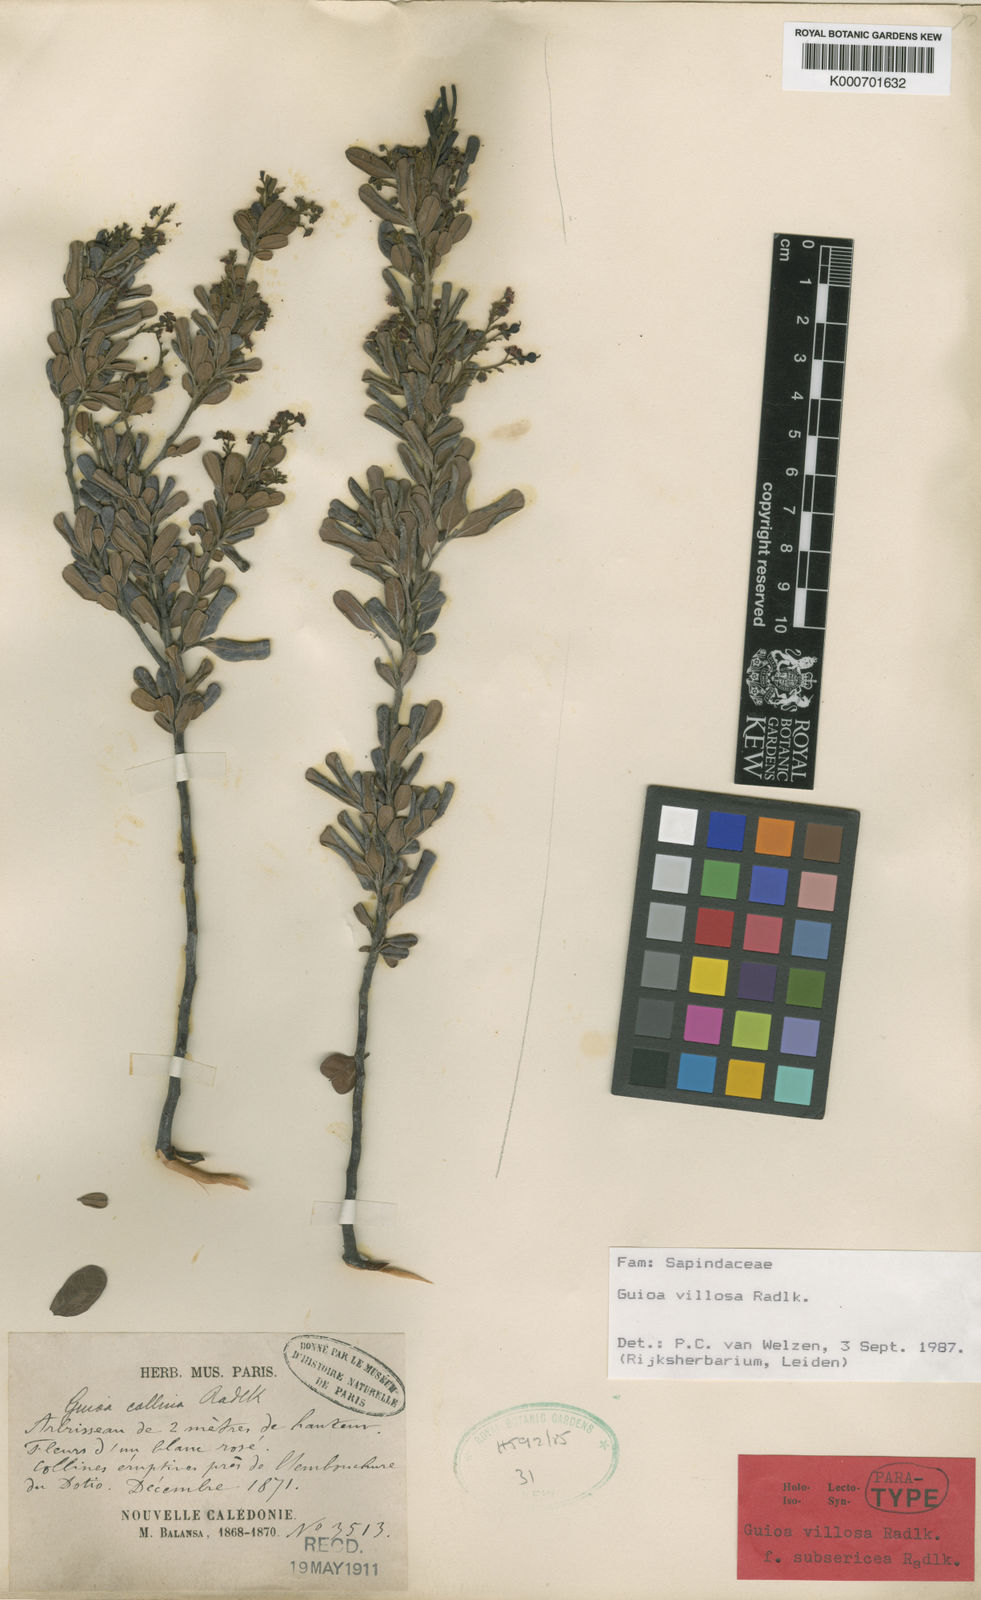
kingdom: Plantae
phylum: Tracheophyta
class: Magnoliopsida
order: Sapindales
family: Sapindaceae
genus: Guioa
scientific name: Guioa villosa
